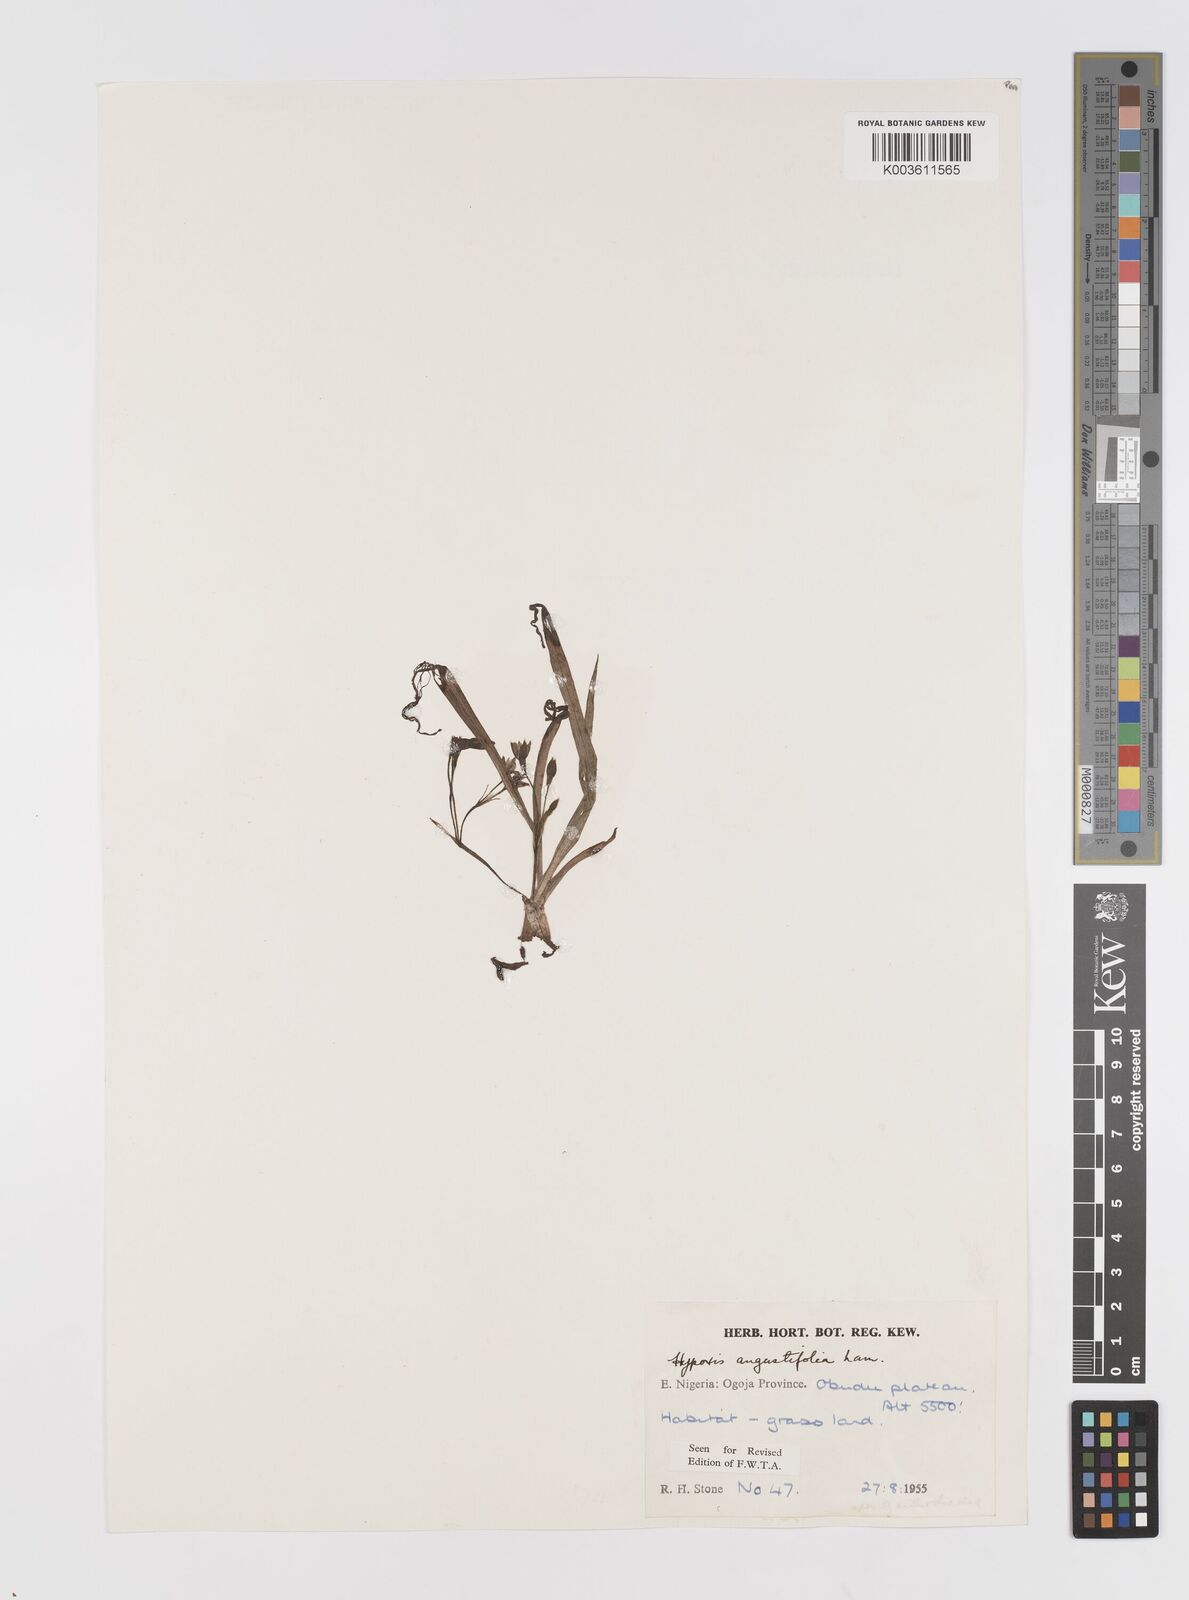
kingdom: Plantae
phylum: Tracheophyta
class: Liliopsida
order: Asparagales
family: Hypoxidaceae
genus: Hypoxis
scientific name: Hypoxis angustifolia
